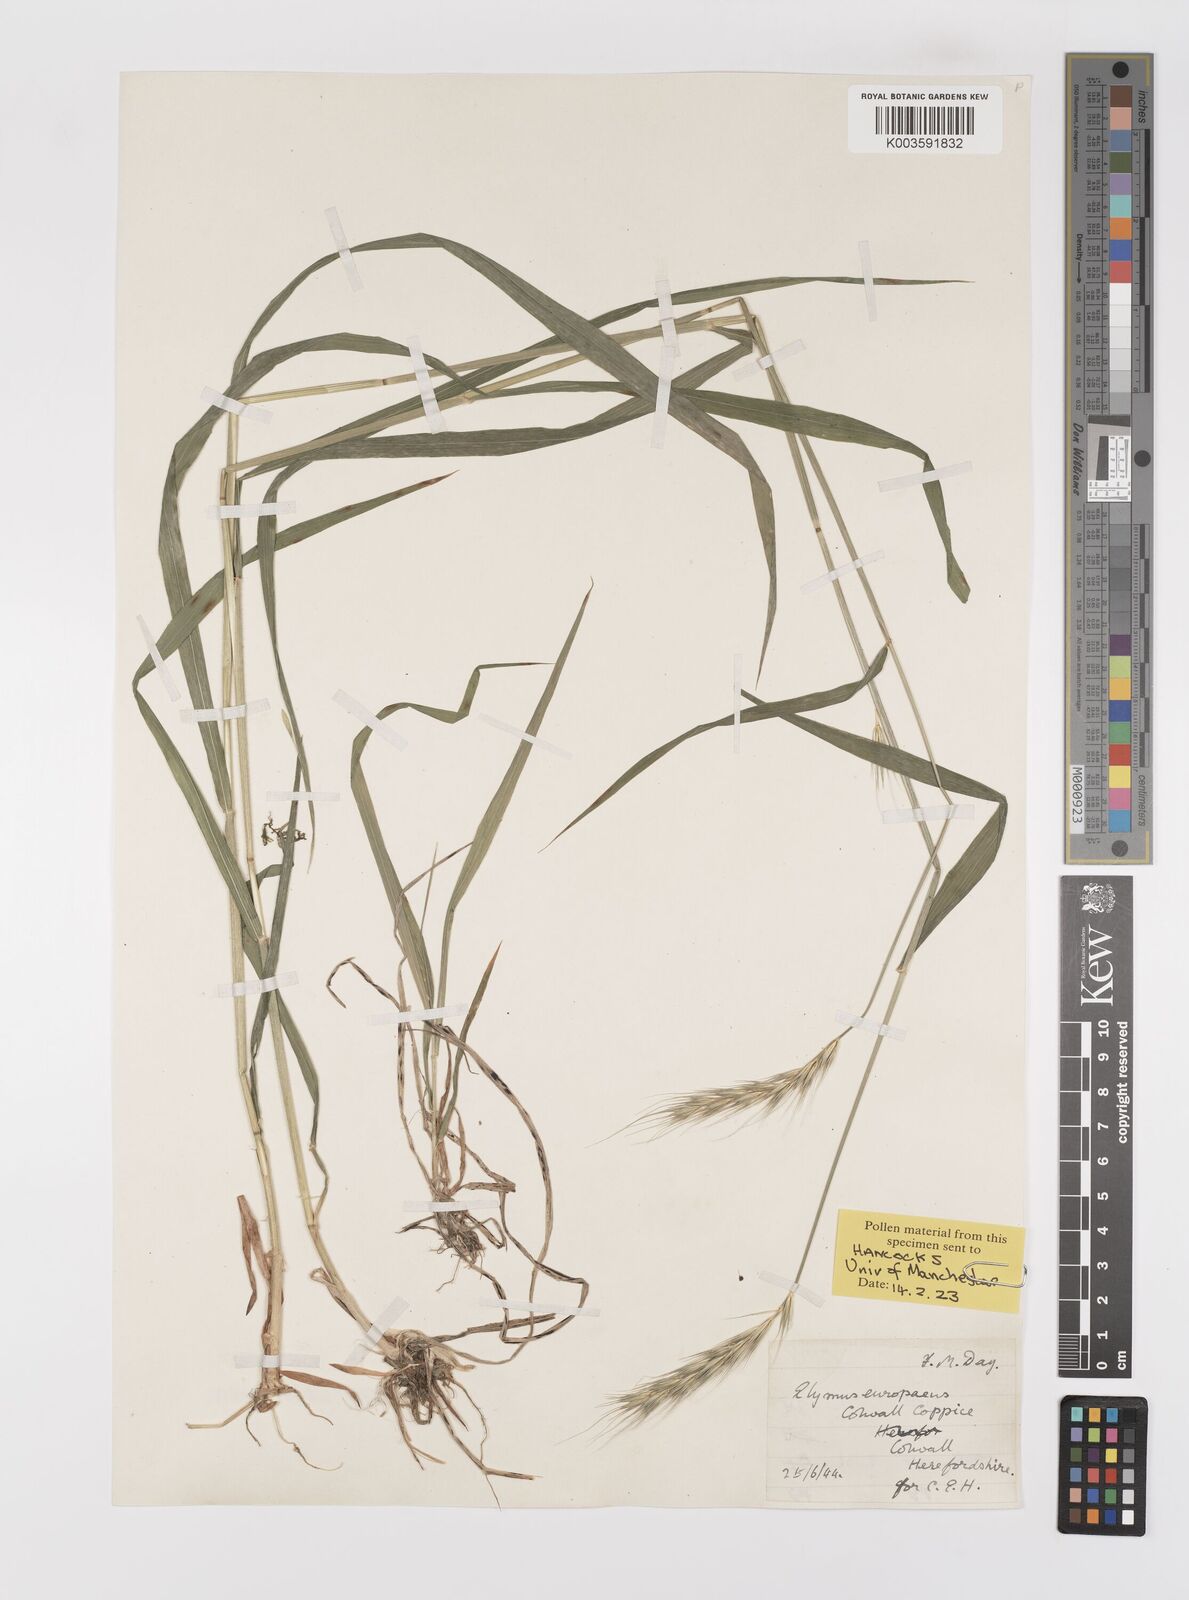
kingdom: Plantae
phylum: Tracheophyta
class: Liliopsida
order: Poales
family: Poaceae
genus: Hordelymus
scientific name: Hordelymus europaeus
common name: Wood-barley
